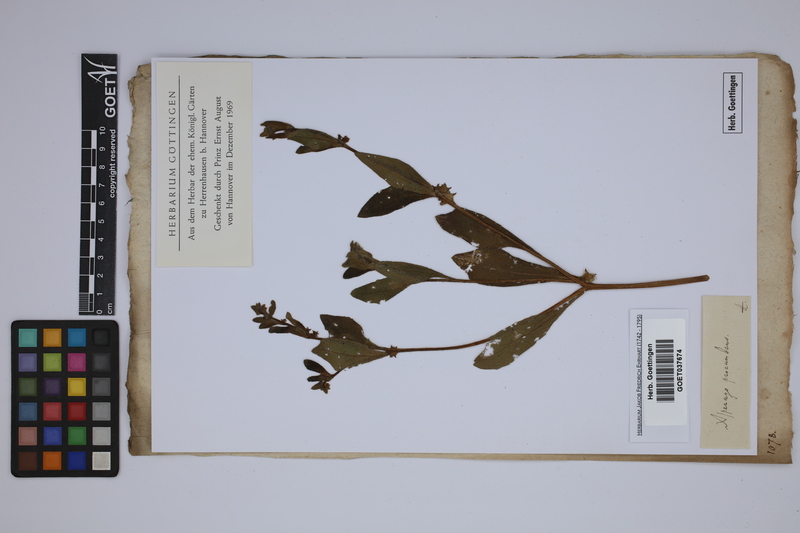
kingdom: Plantae
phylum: Tracheophyta
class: Magnoliopsida
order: Boraginales
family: Boraginaceae
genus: Asperugo
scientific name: Asperugo procumbens
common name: Madwort
